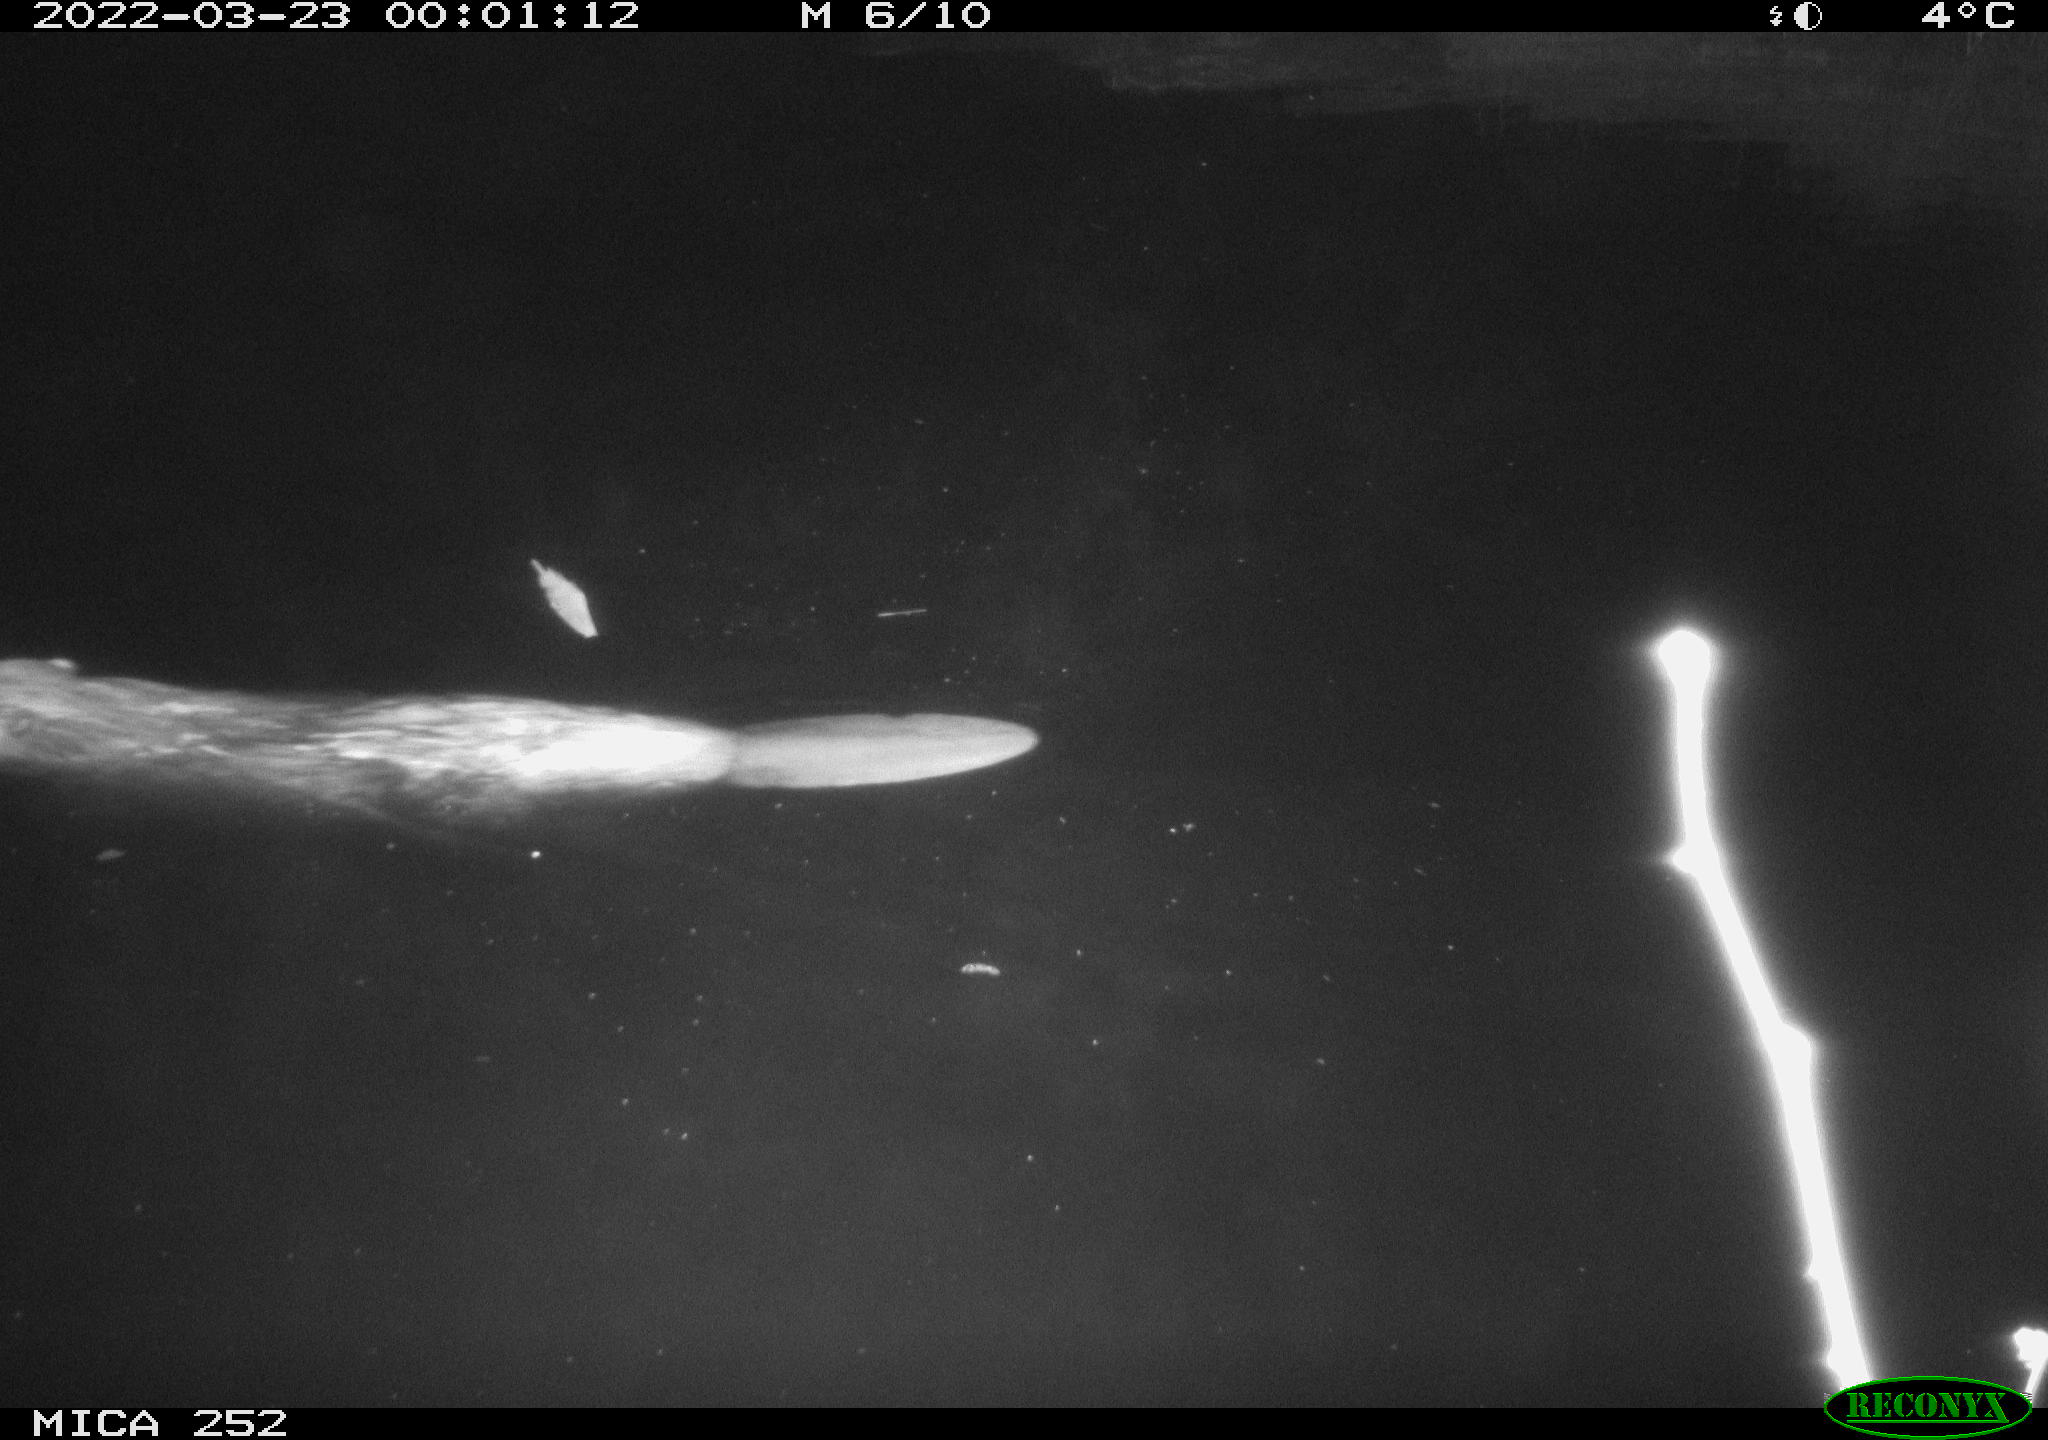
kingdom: Animalia
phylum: Chordata
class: Mammalia
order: Rodentia
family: Castoridae
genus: Castor
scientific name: Castor fiber
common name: Eurasian beaver
